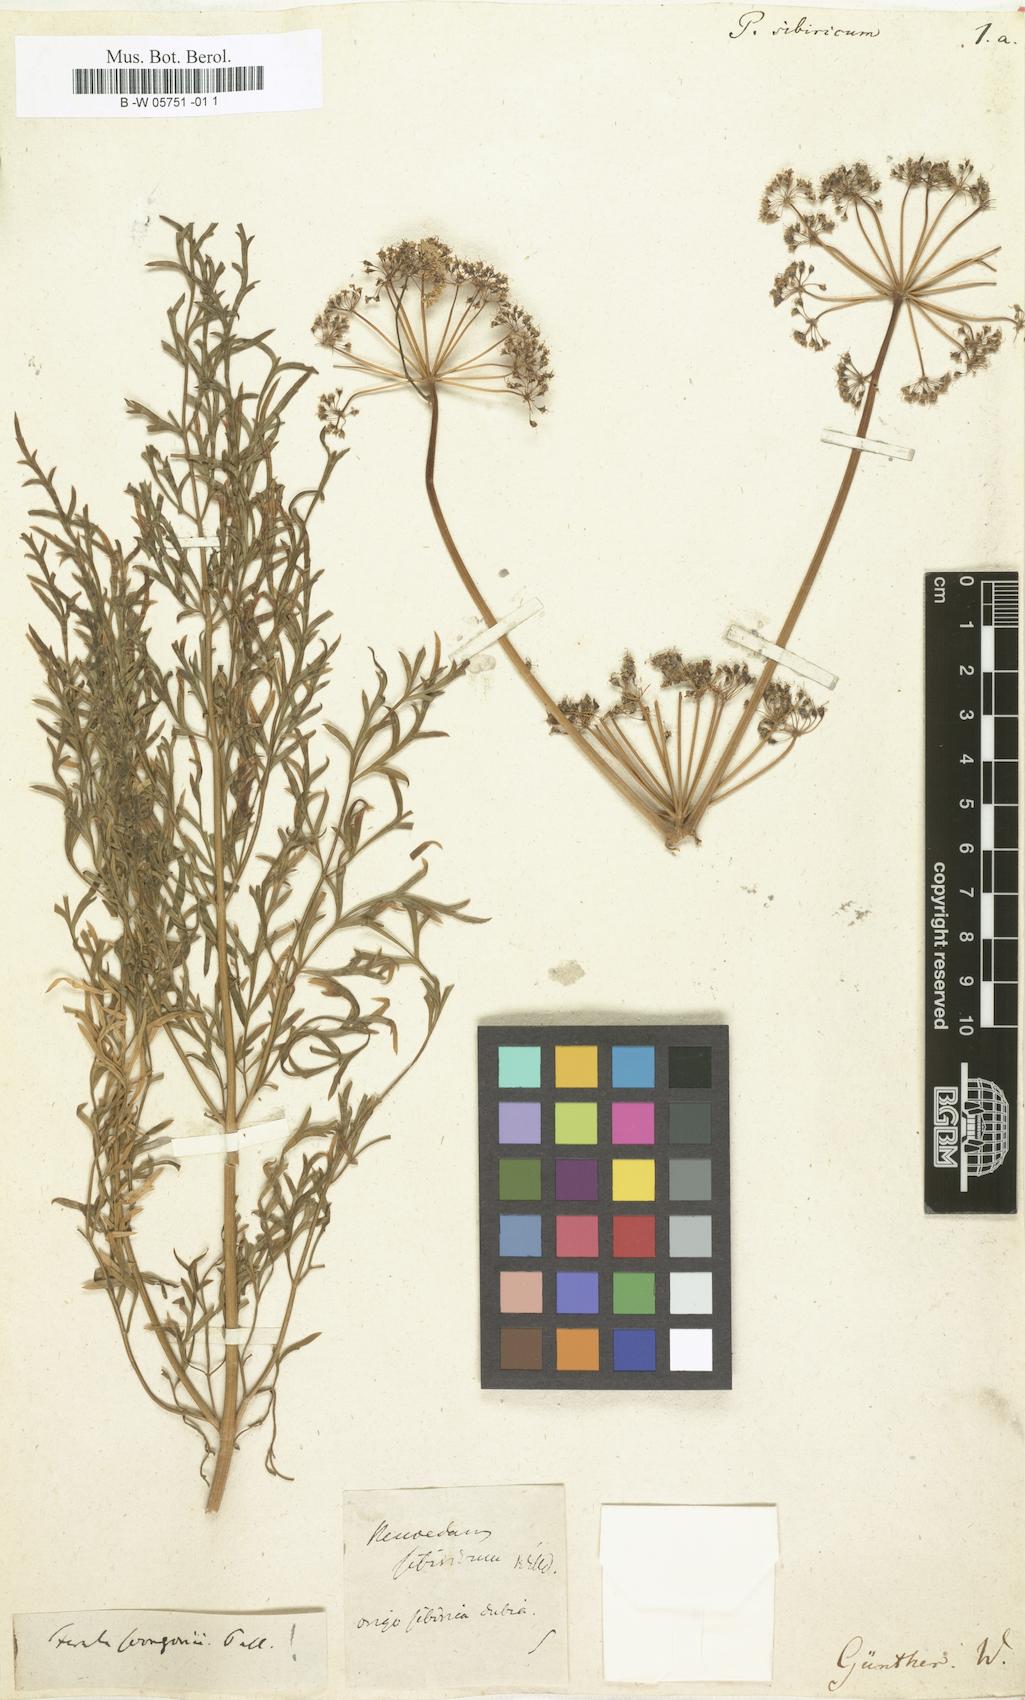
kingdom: Plantae
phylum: Tracheophyta
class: Magnoliopsida
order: Apiales
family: Apiaceae
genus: Ferula
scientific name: Ferula
